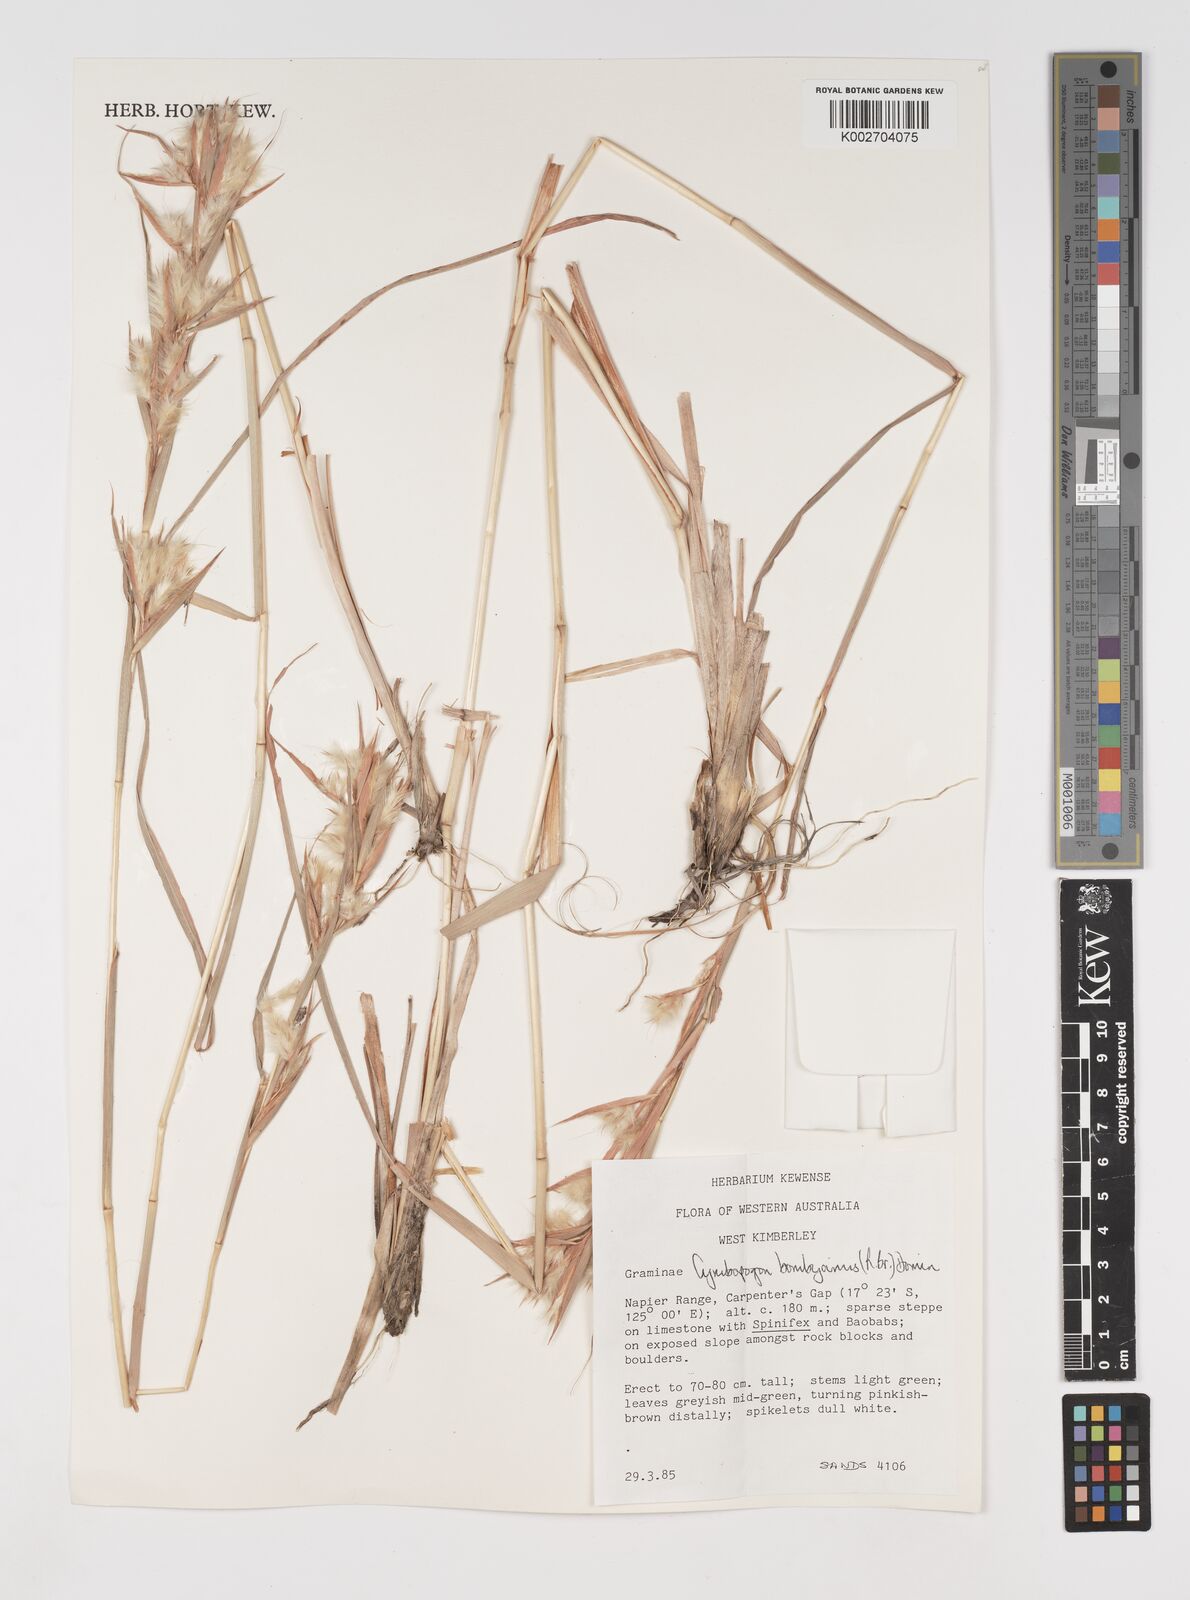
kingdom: Plantae
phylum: Tracheophyta
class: Liliopsida
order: Poales
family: Poaceae
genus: Cymbopogon
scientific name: Cymbopogon bombycinus
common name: Citronella grass
